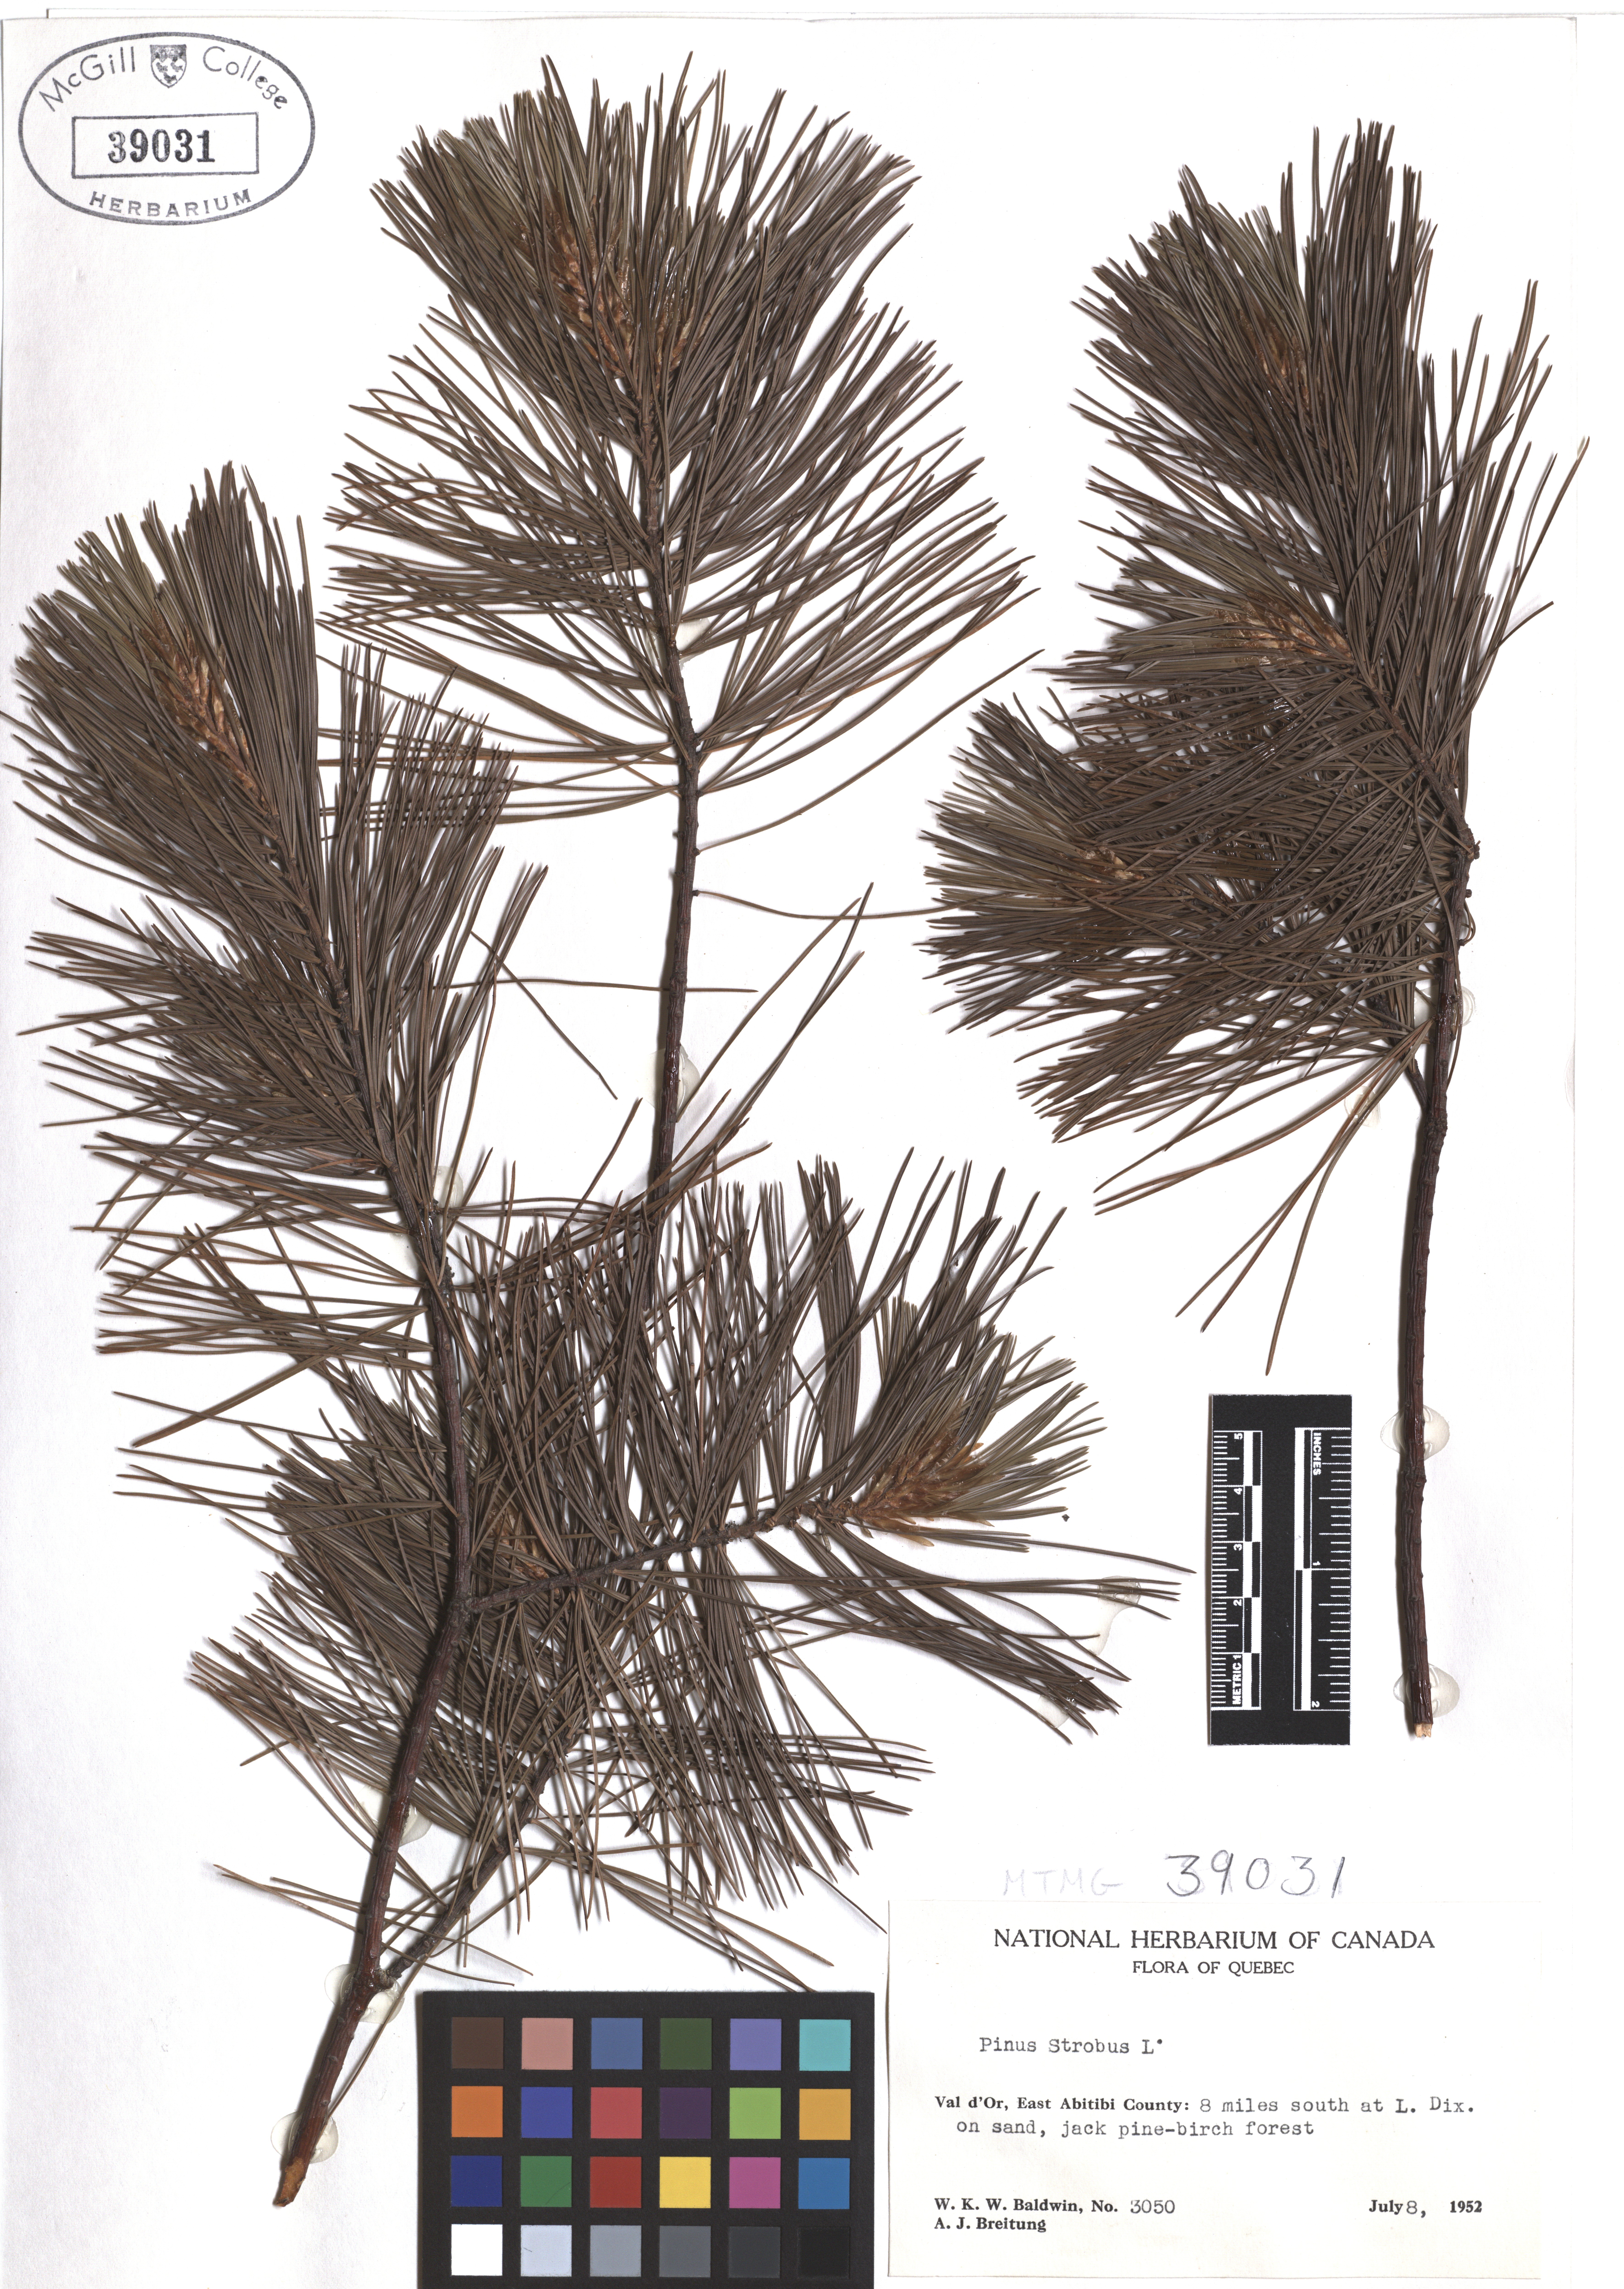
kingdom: Plantae
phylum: Tracheophyta
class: Pinopsida
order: Pinales
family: Pinaceae
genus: Pinus
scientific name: Pinus strobus
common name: Weymouth pine
